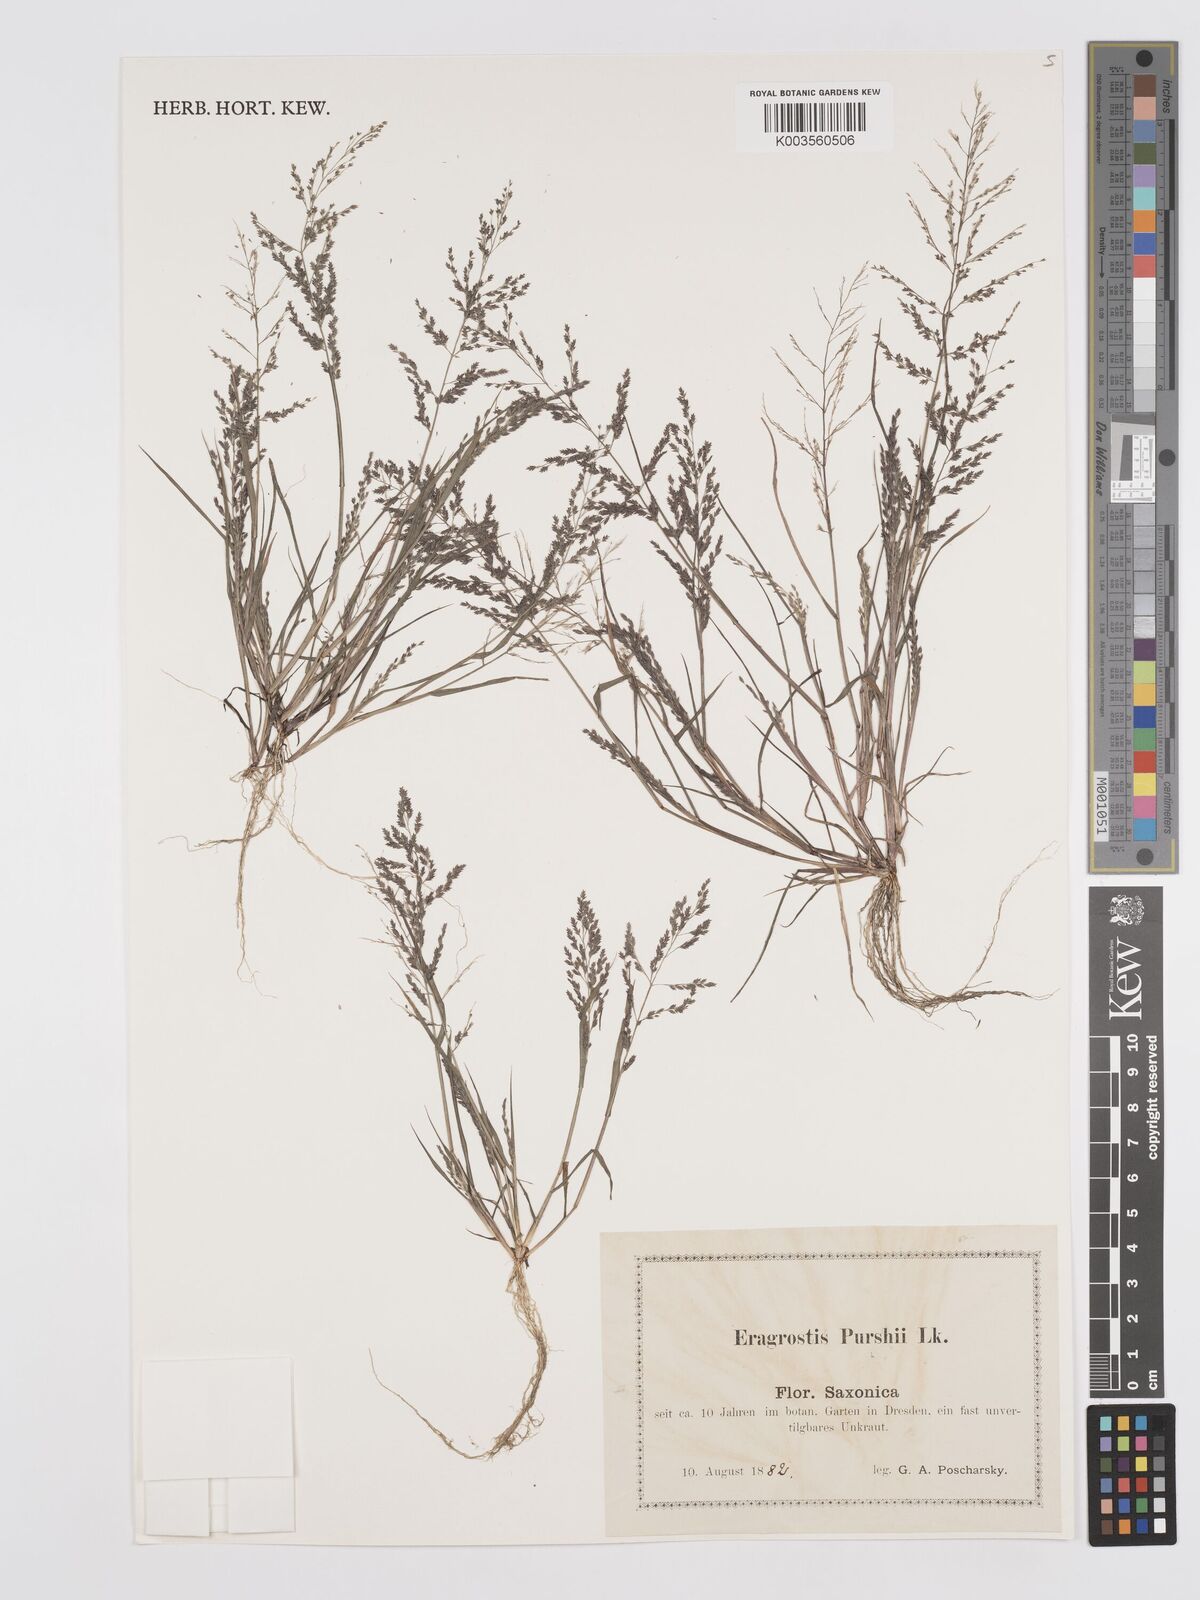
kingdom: Plantae
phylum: Tracheophyta
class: Liliopsida
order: Poales
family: Poaceae
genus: Eragrostis
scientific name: Eragrostis pectinacea
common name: Tufted lovegrass
